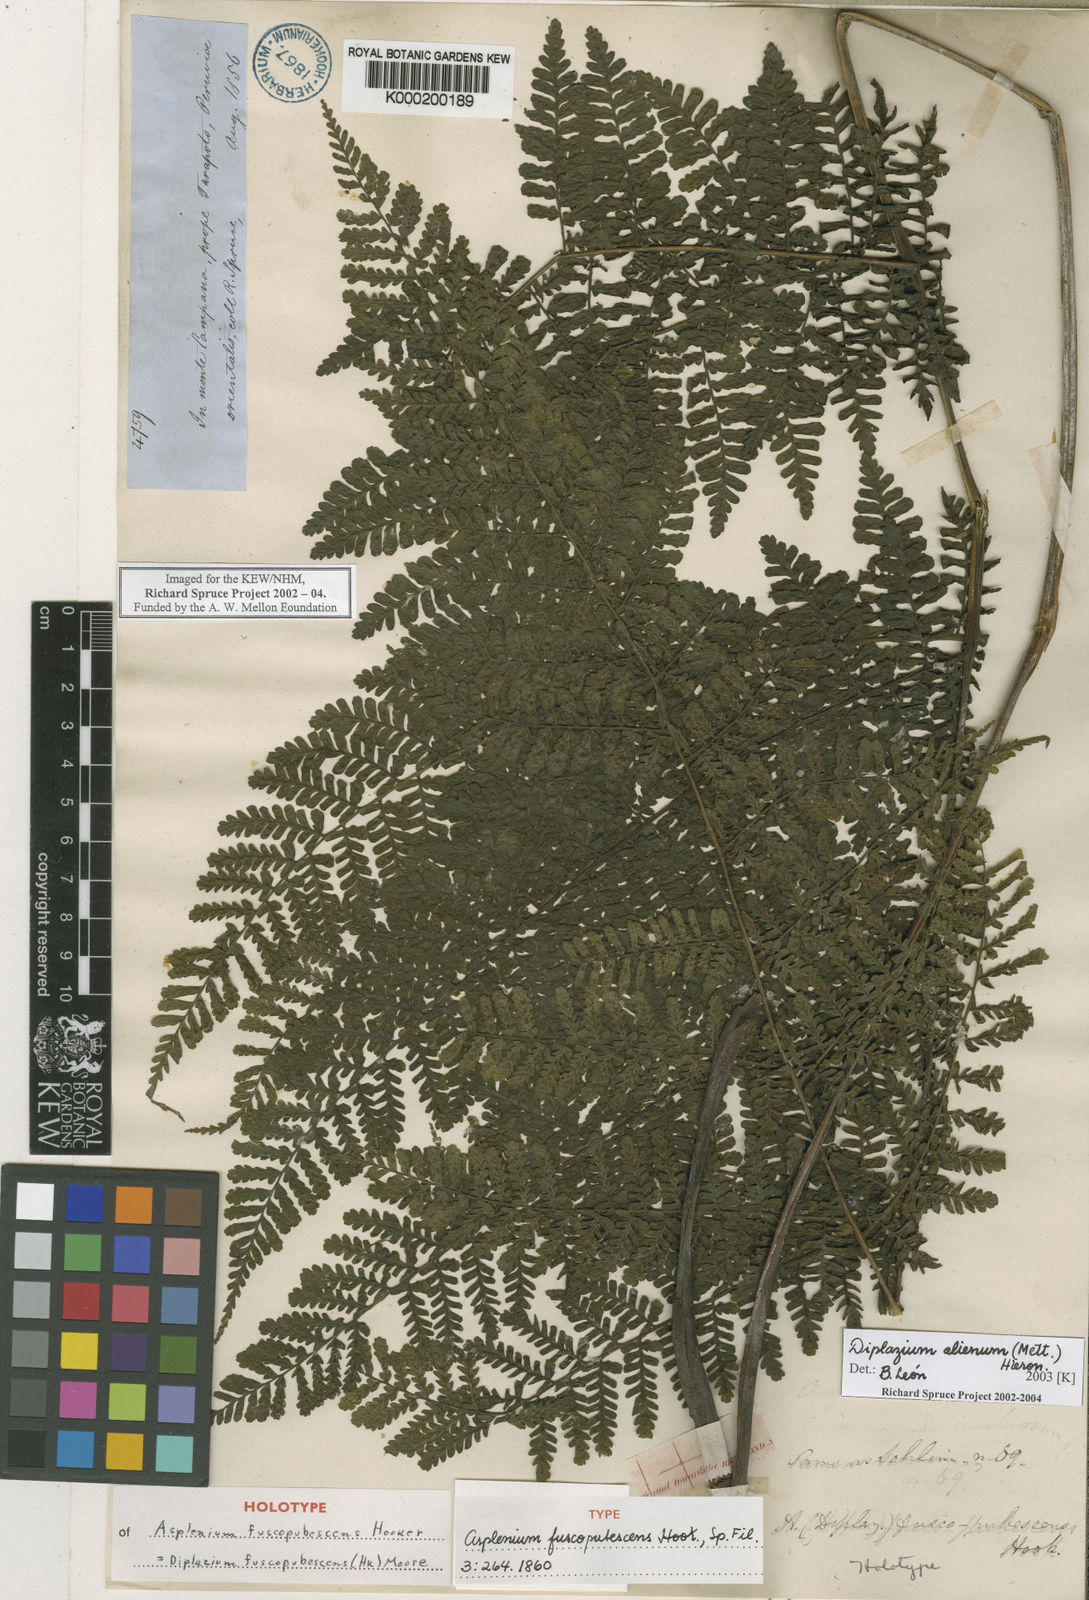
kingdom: Plantae
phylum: Tracheophyta
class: Polypodiopsida
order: Polypodiales
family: Athyriaceae
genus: Diplazium
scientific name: Diplazium alienum
